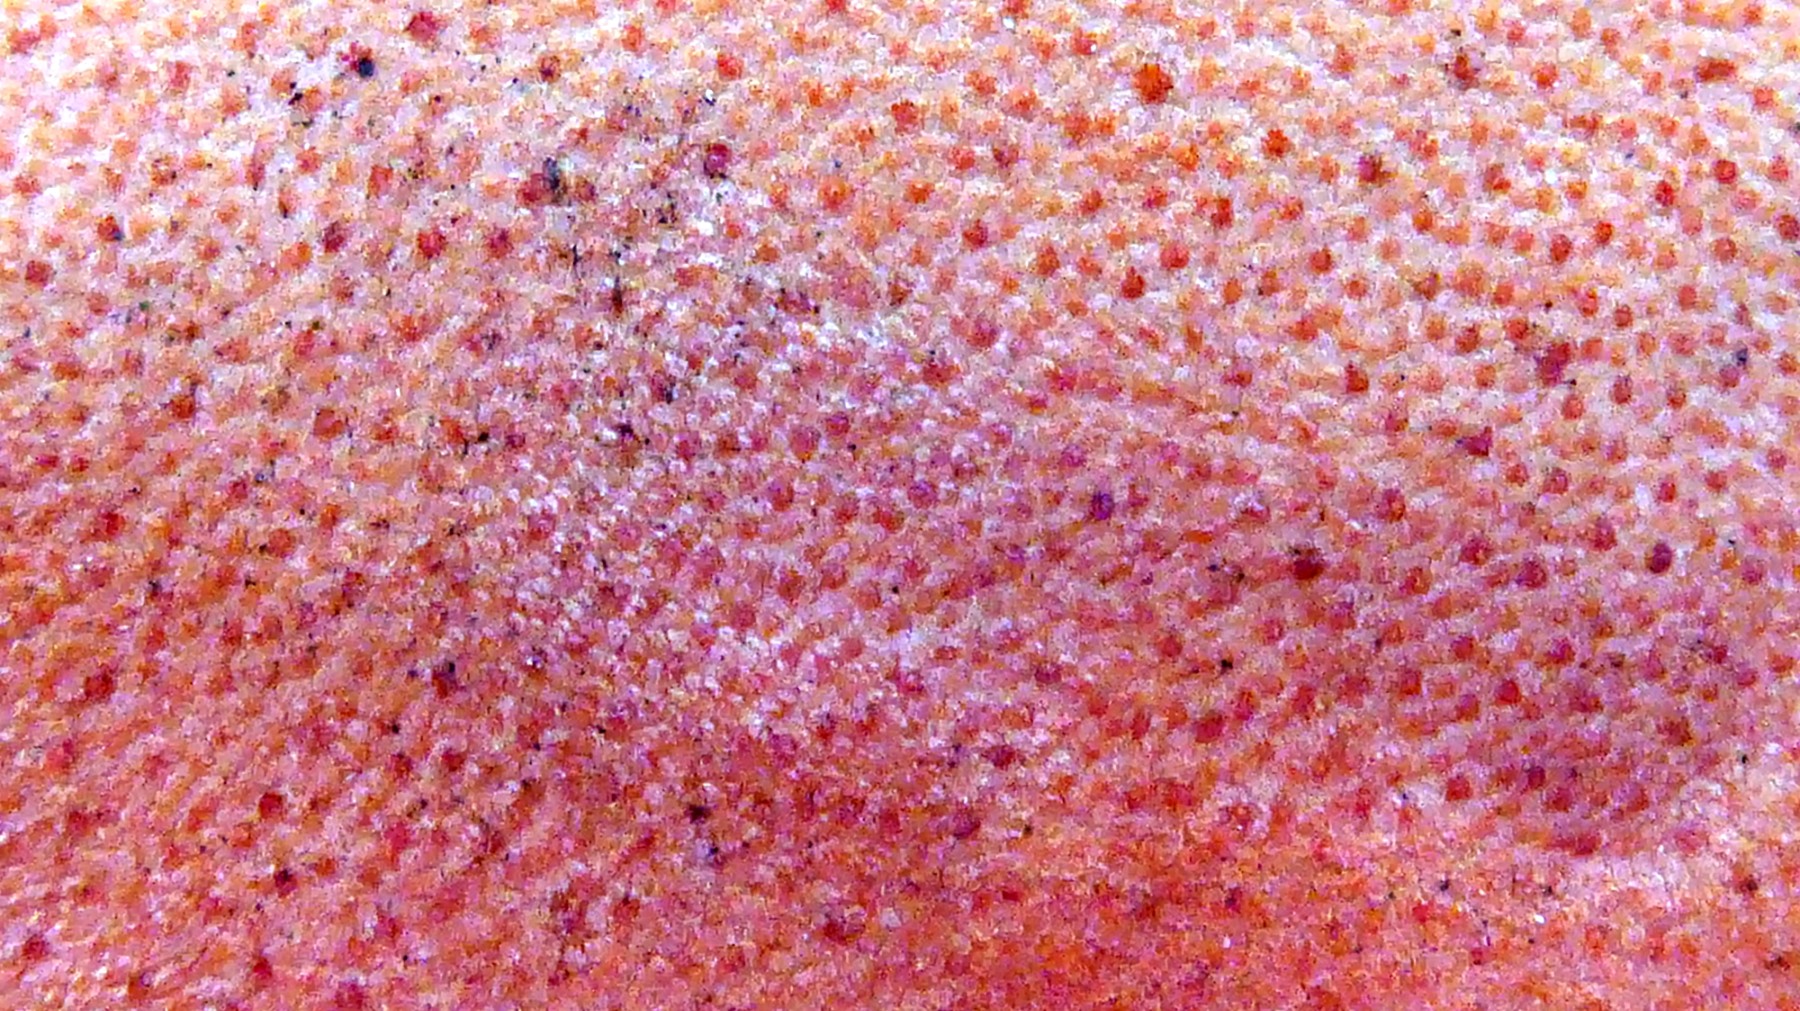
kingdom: Fungi
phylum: Basidiomycota
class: Agaricomycetes
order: Agaricales
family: Fistulinaceae
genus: Fistulina
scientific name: Fistulina hepatica
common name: oksetunge
